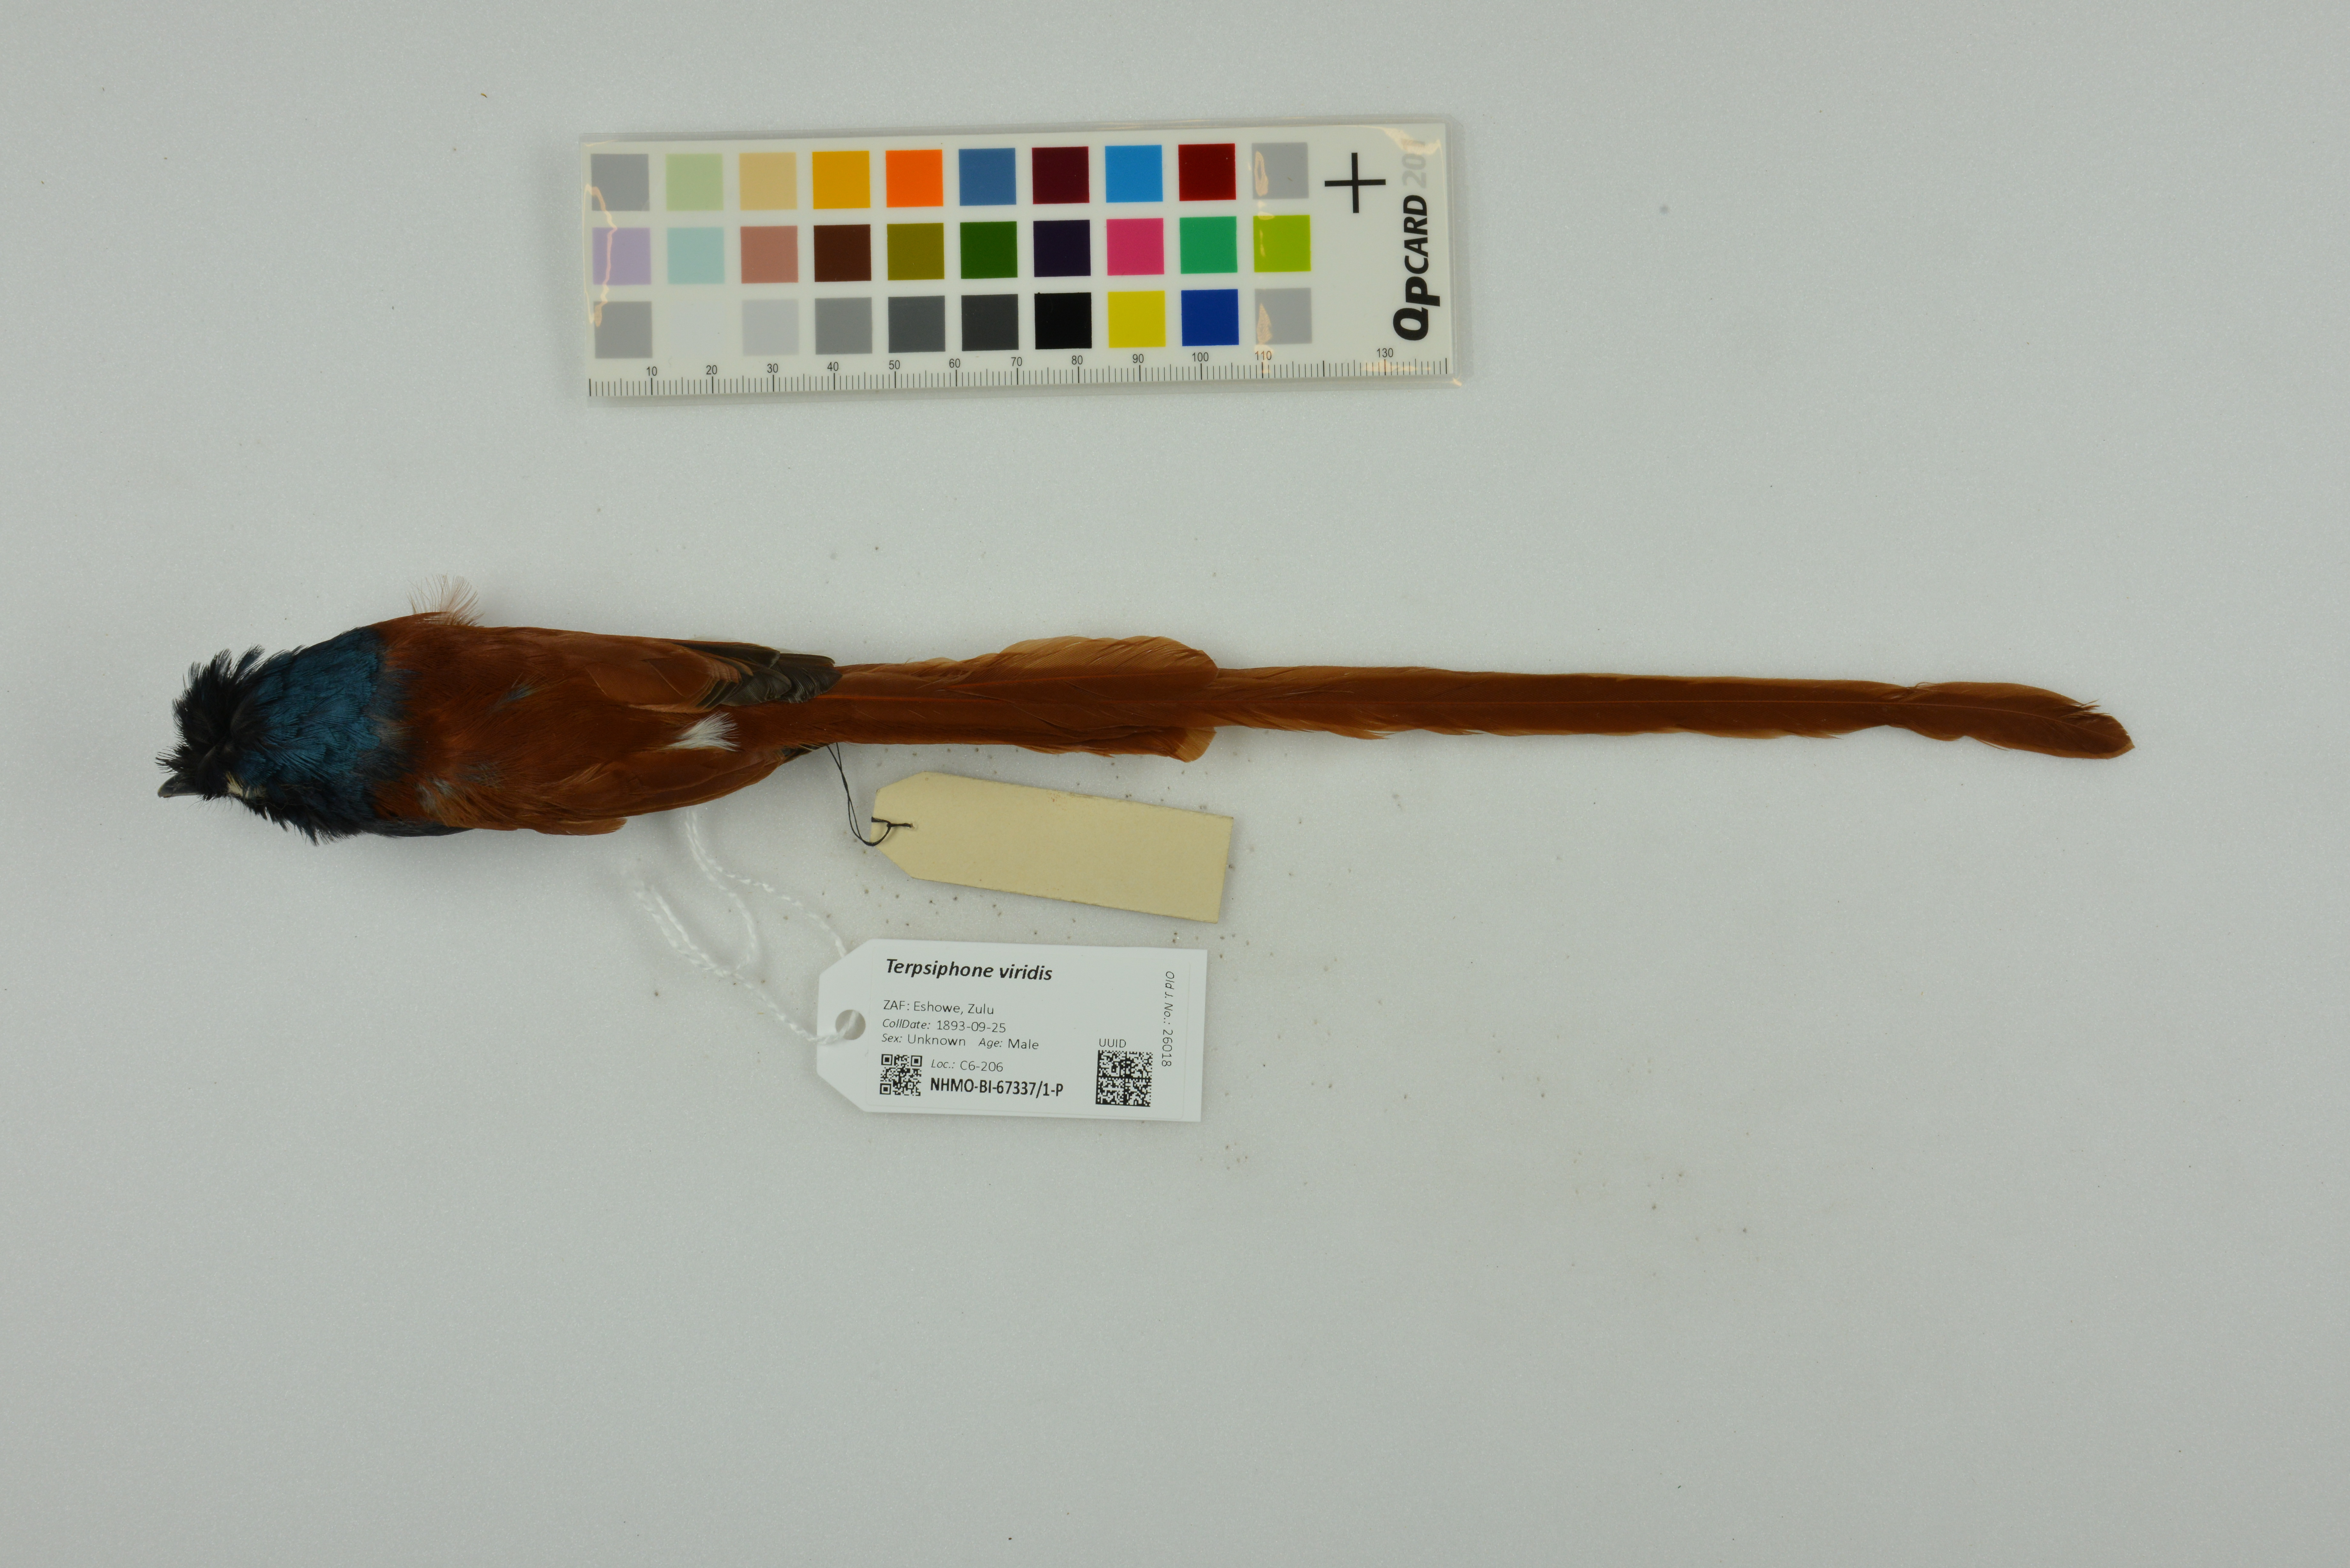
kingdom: Animalia
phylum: Chordata
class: Aves
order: Passeriformes
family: Monarchidae
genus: Terpsiphone
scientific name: Terpsiphone viridis
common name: African paradise flycatcher
